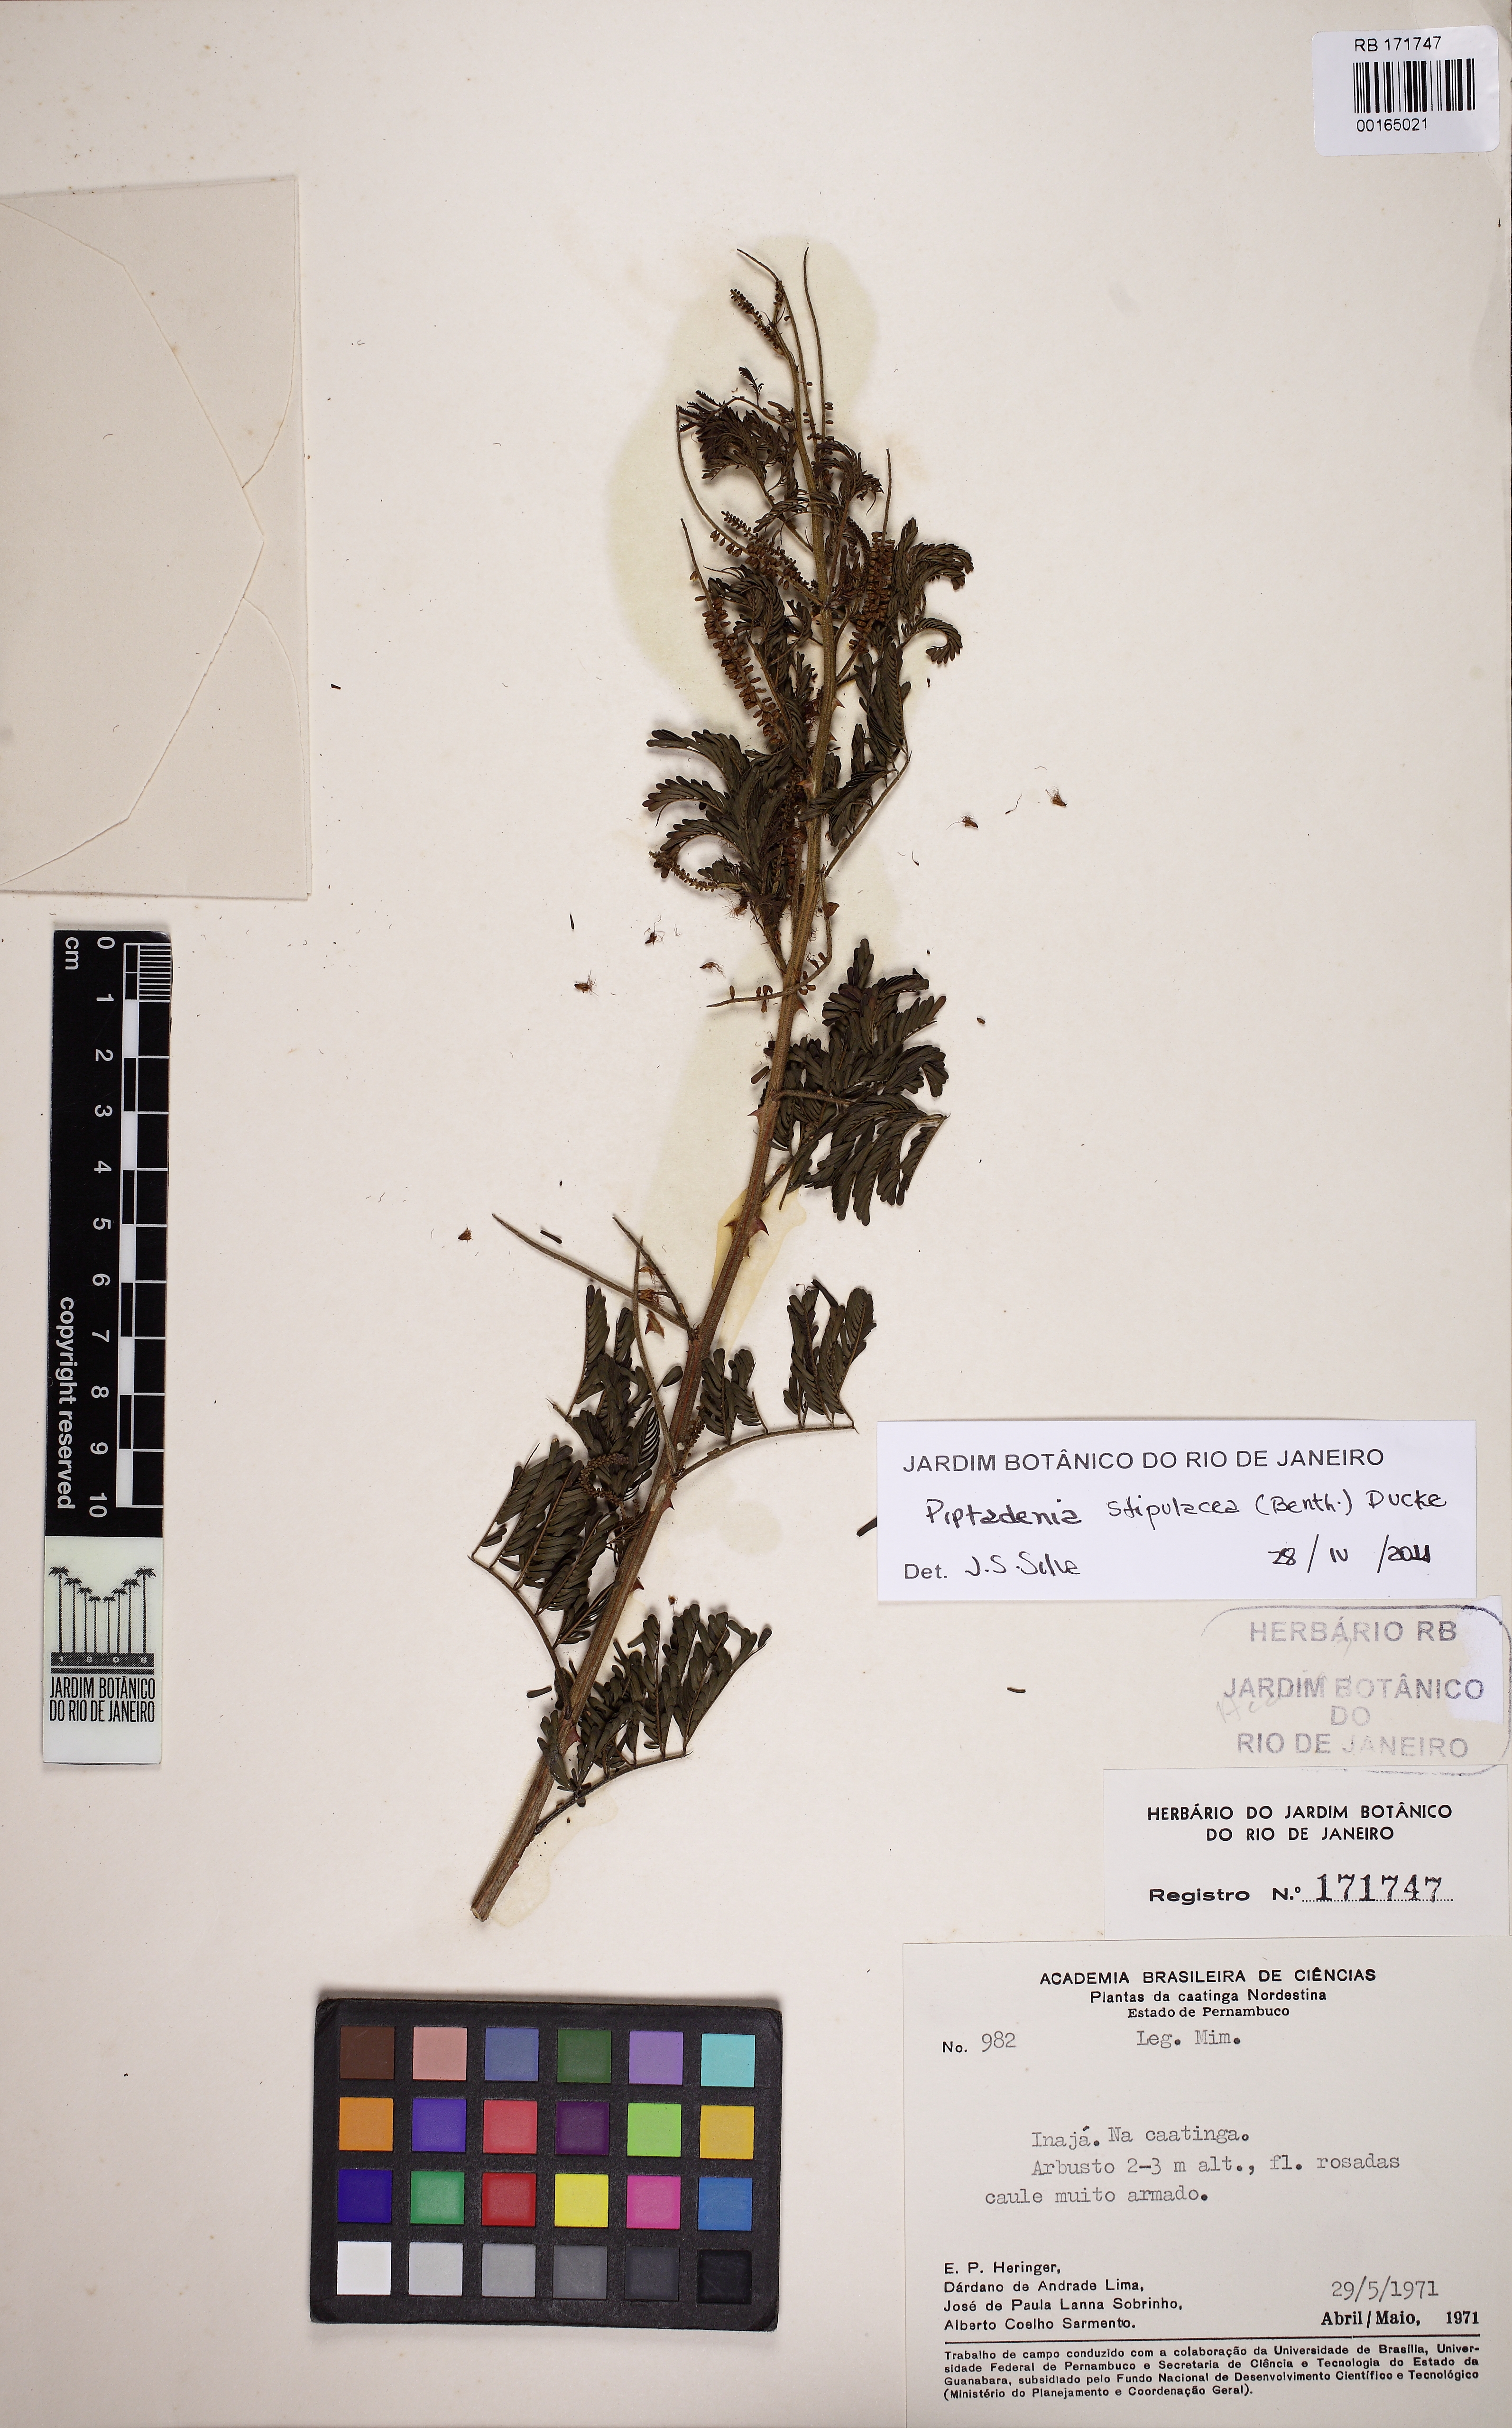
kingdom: Plantae
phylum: Tracheophyta
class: Magnoliopsida
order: Fabales
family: Fabaceae
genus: Piptadenia
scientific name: Piptadenia retusa
